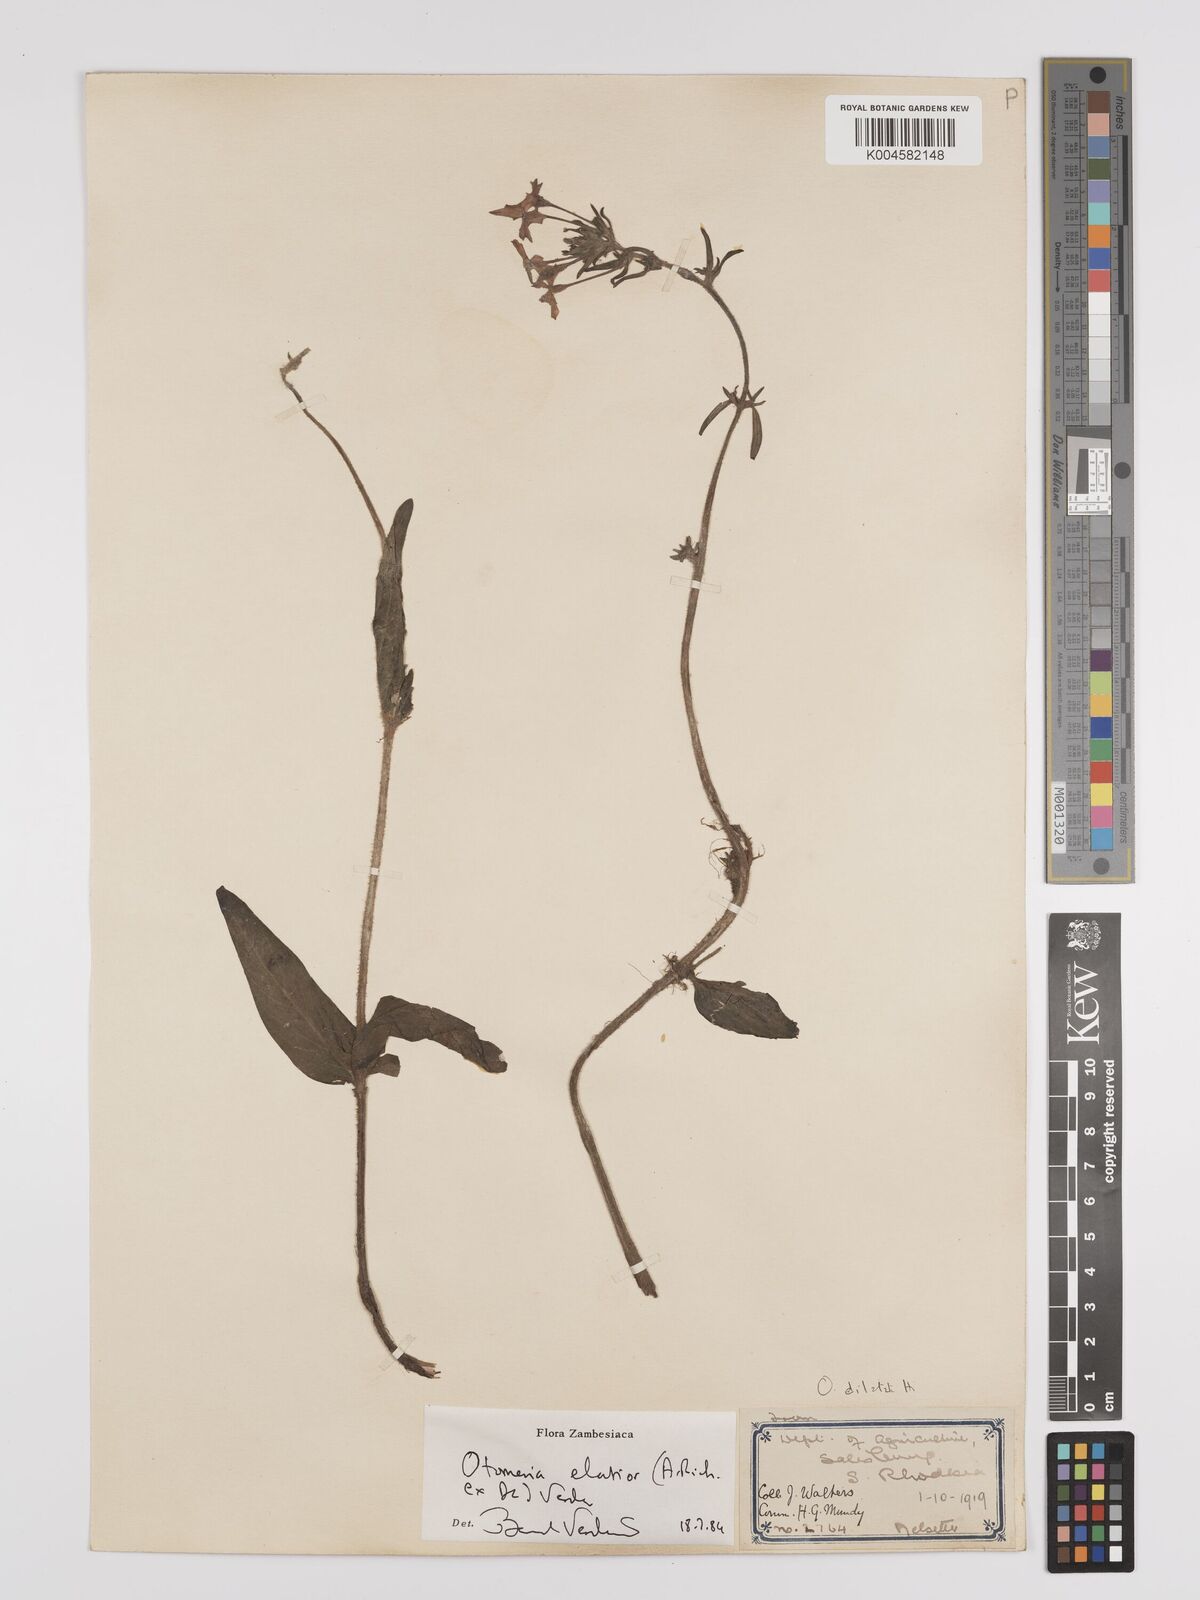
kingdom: Plantae
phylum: Tracheophyta
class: Magnoliopsida
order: Gentianales
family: Rubiaceae
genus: Otomeria
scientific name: Otomeria elatior
